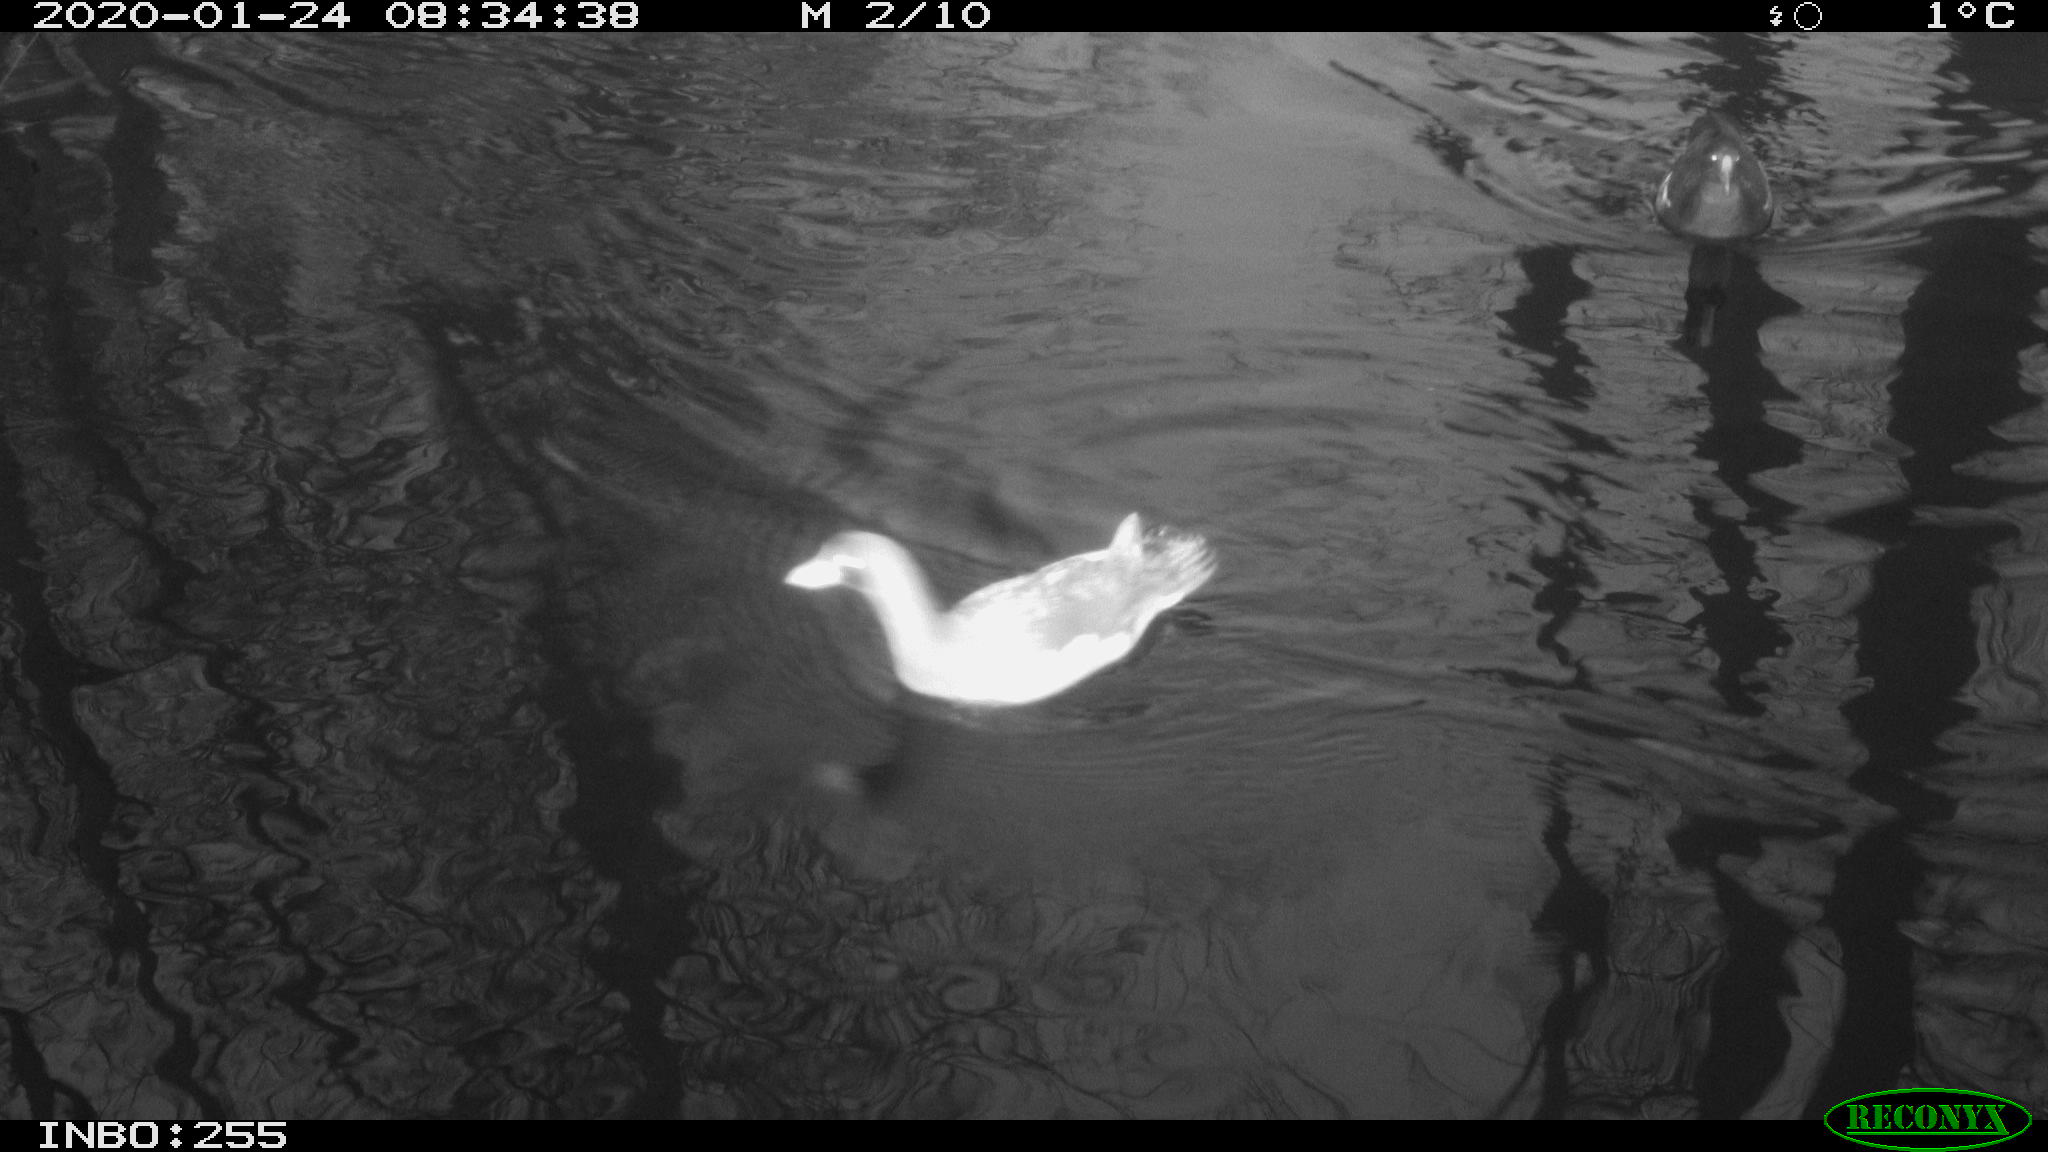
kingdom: Animalia
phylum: Chordata
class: Aves
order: Gruiformes
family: Rallidae
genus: Gallinula
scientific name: Gallinula chloropus
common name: Common moorhen
